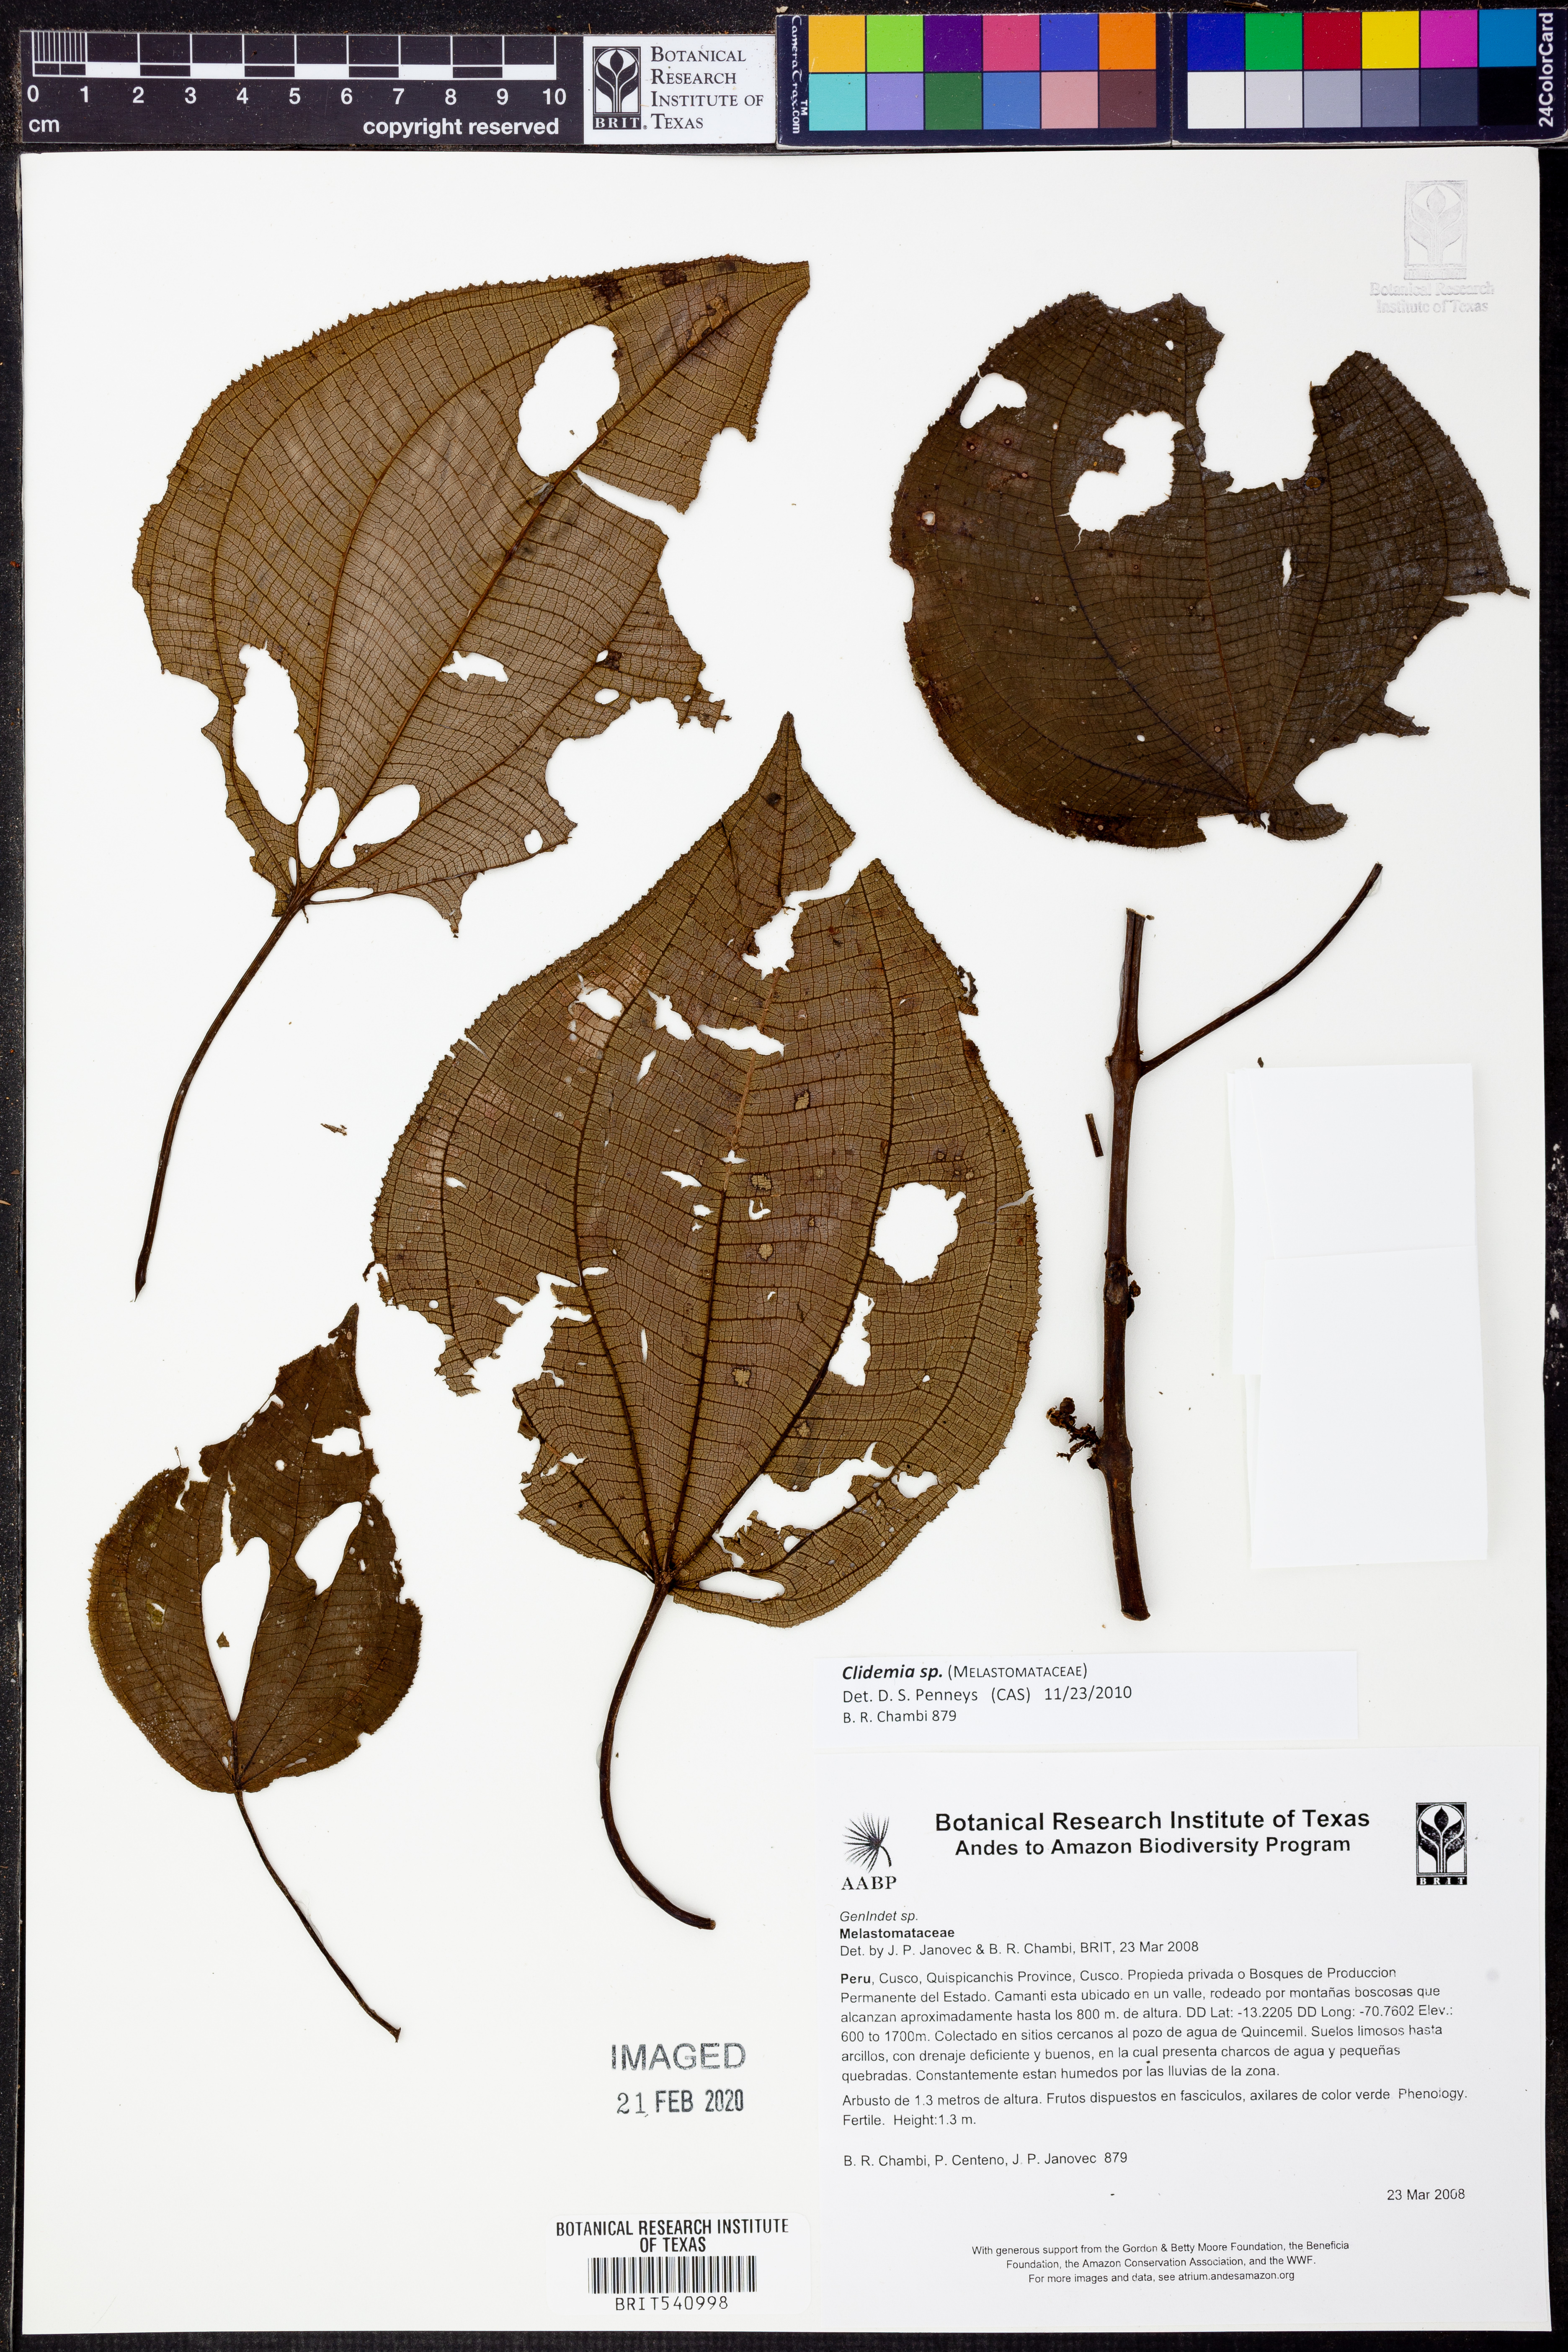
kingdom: Plantae
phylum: Tracheophyta
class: Magnoliopsida
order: Myrtales
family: Melastomataceae
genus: Miconia
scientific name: Miconia
